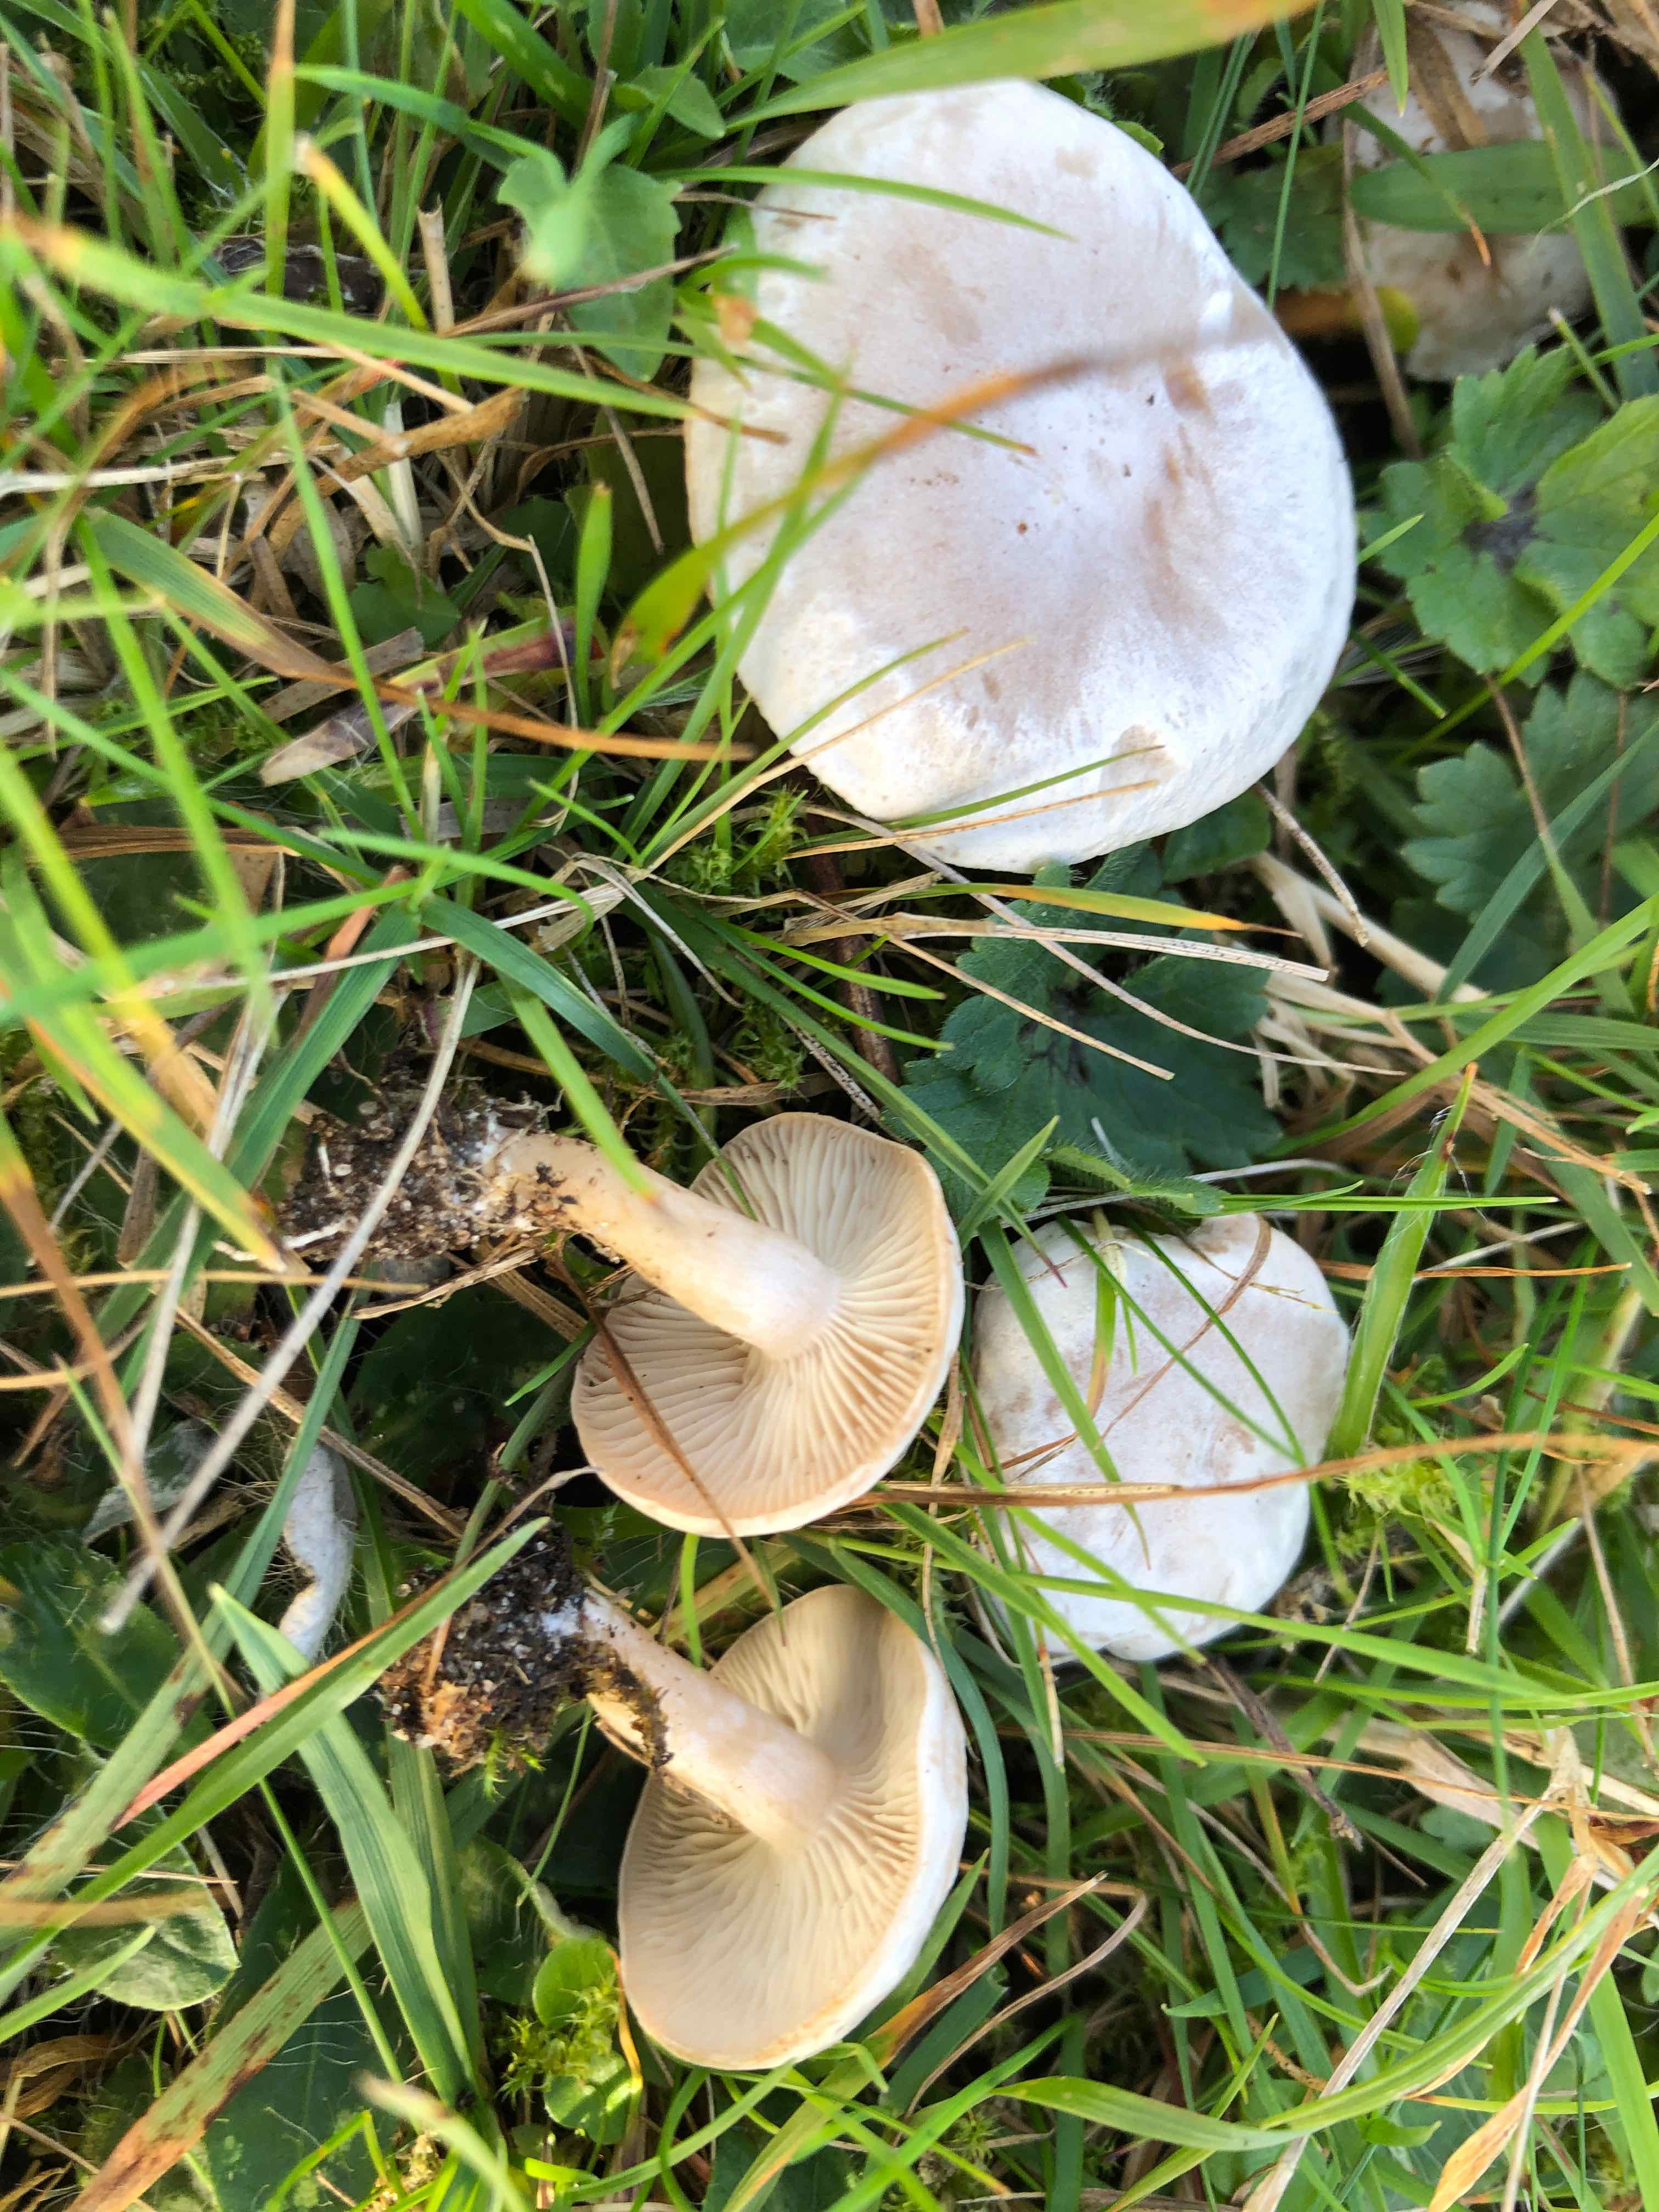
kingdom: Fungi
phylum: Basidiomycota
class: Agaricomycetes
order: Agaricales
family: Tricholomataceae
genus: Clitocybe
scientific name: Clitocybe rivulosa
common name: eng-tragthat
